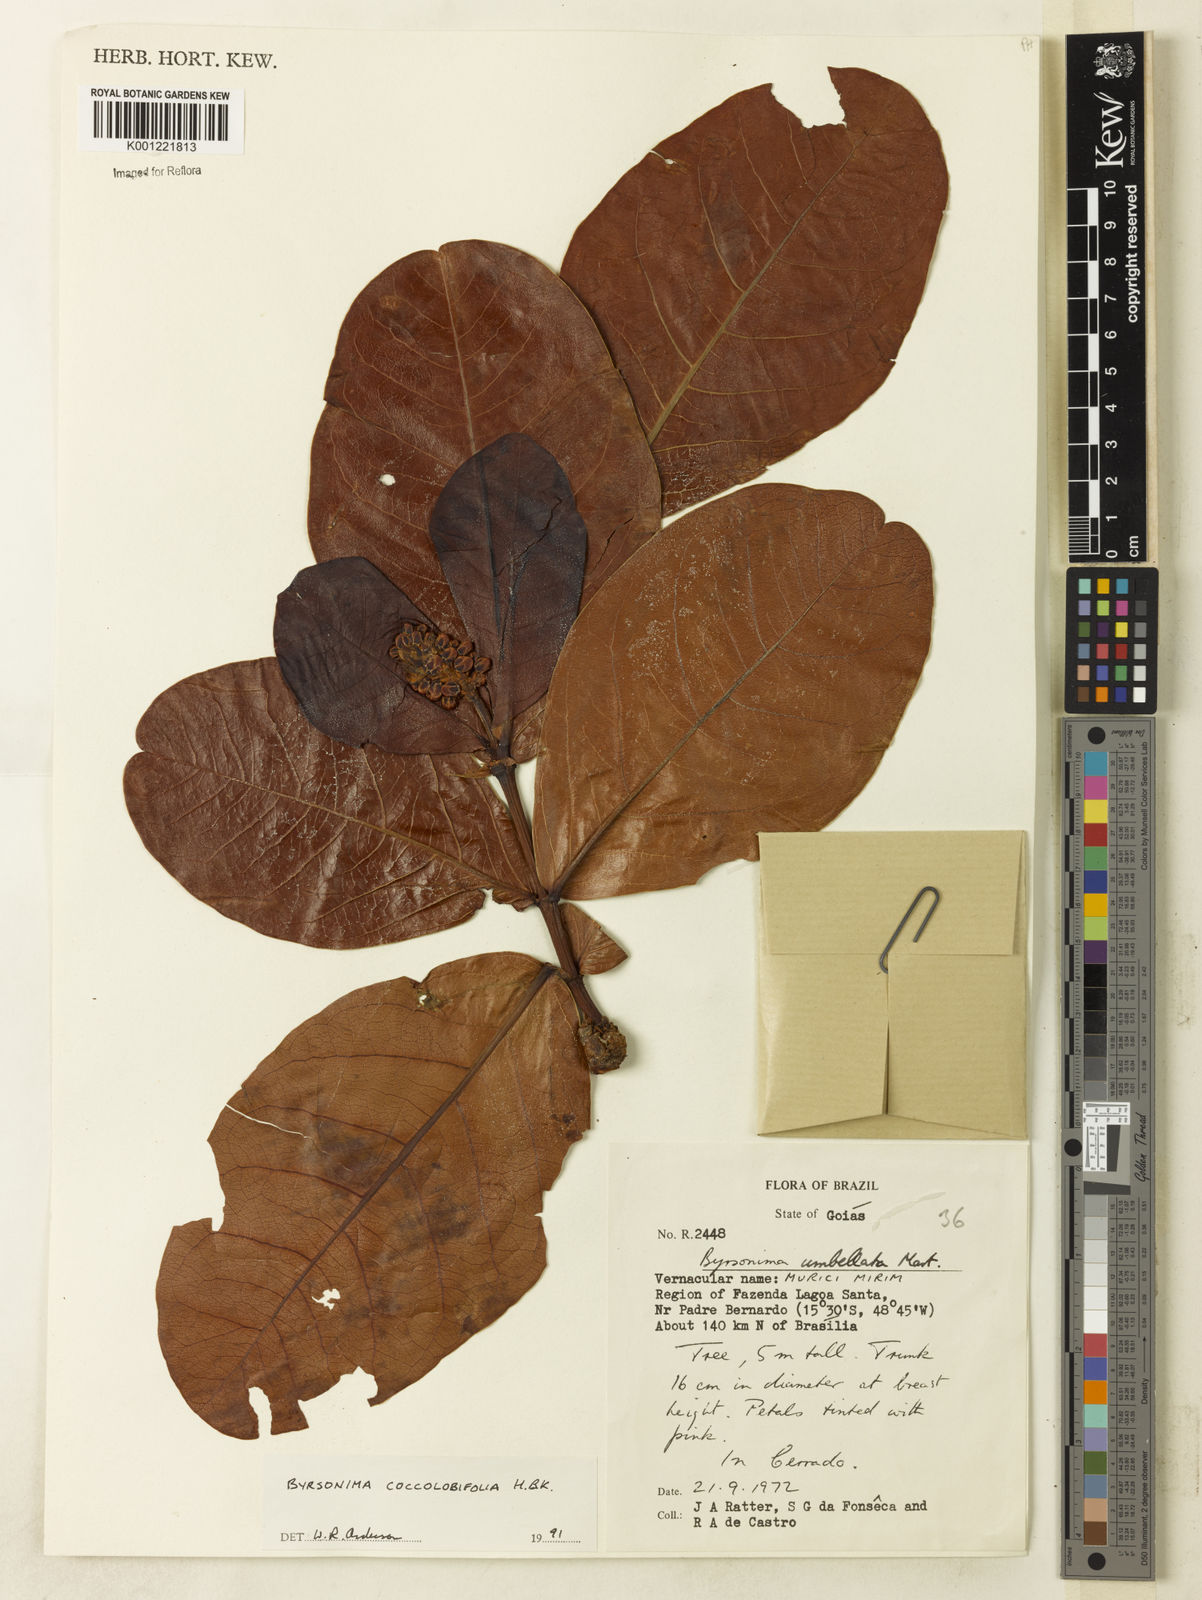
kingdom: Plantae
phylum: Tracheophyta
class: Magnoliopsida
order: Malpighiales
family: Malpighiaceae
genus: Byrsonima
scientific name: Byrsonima coccolobifolia
